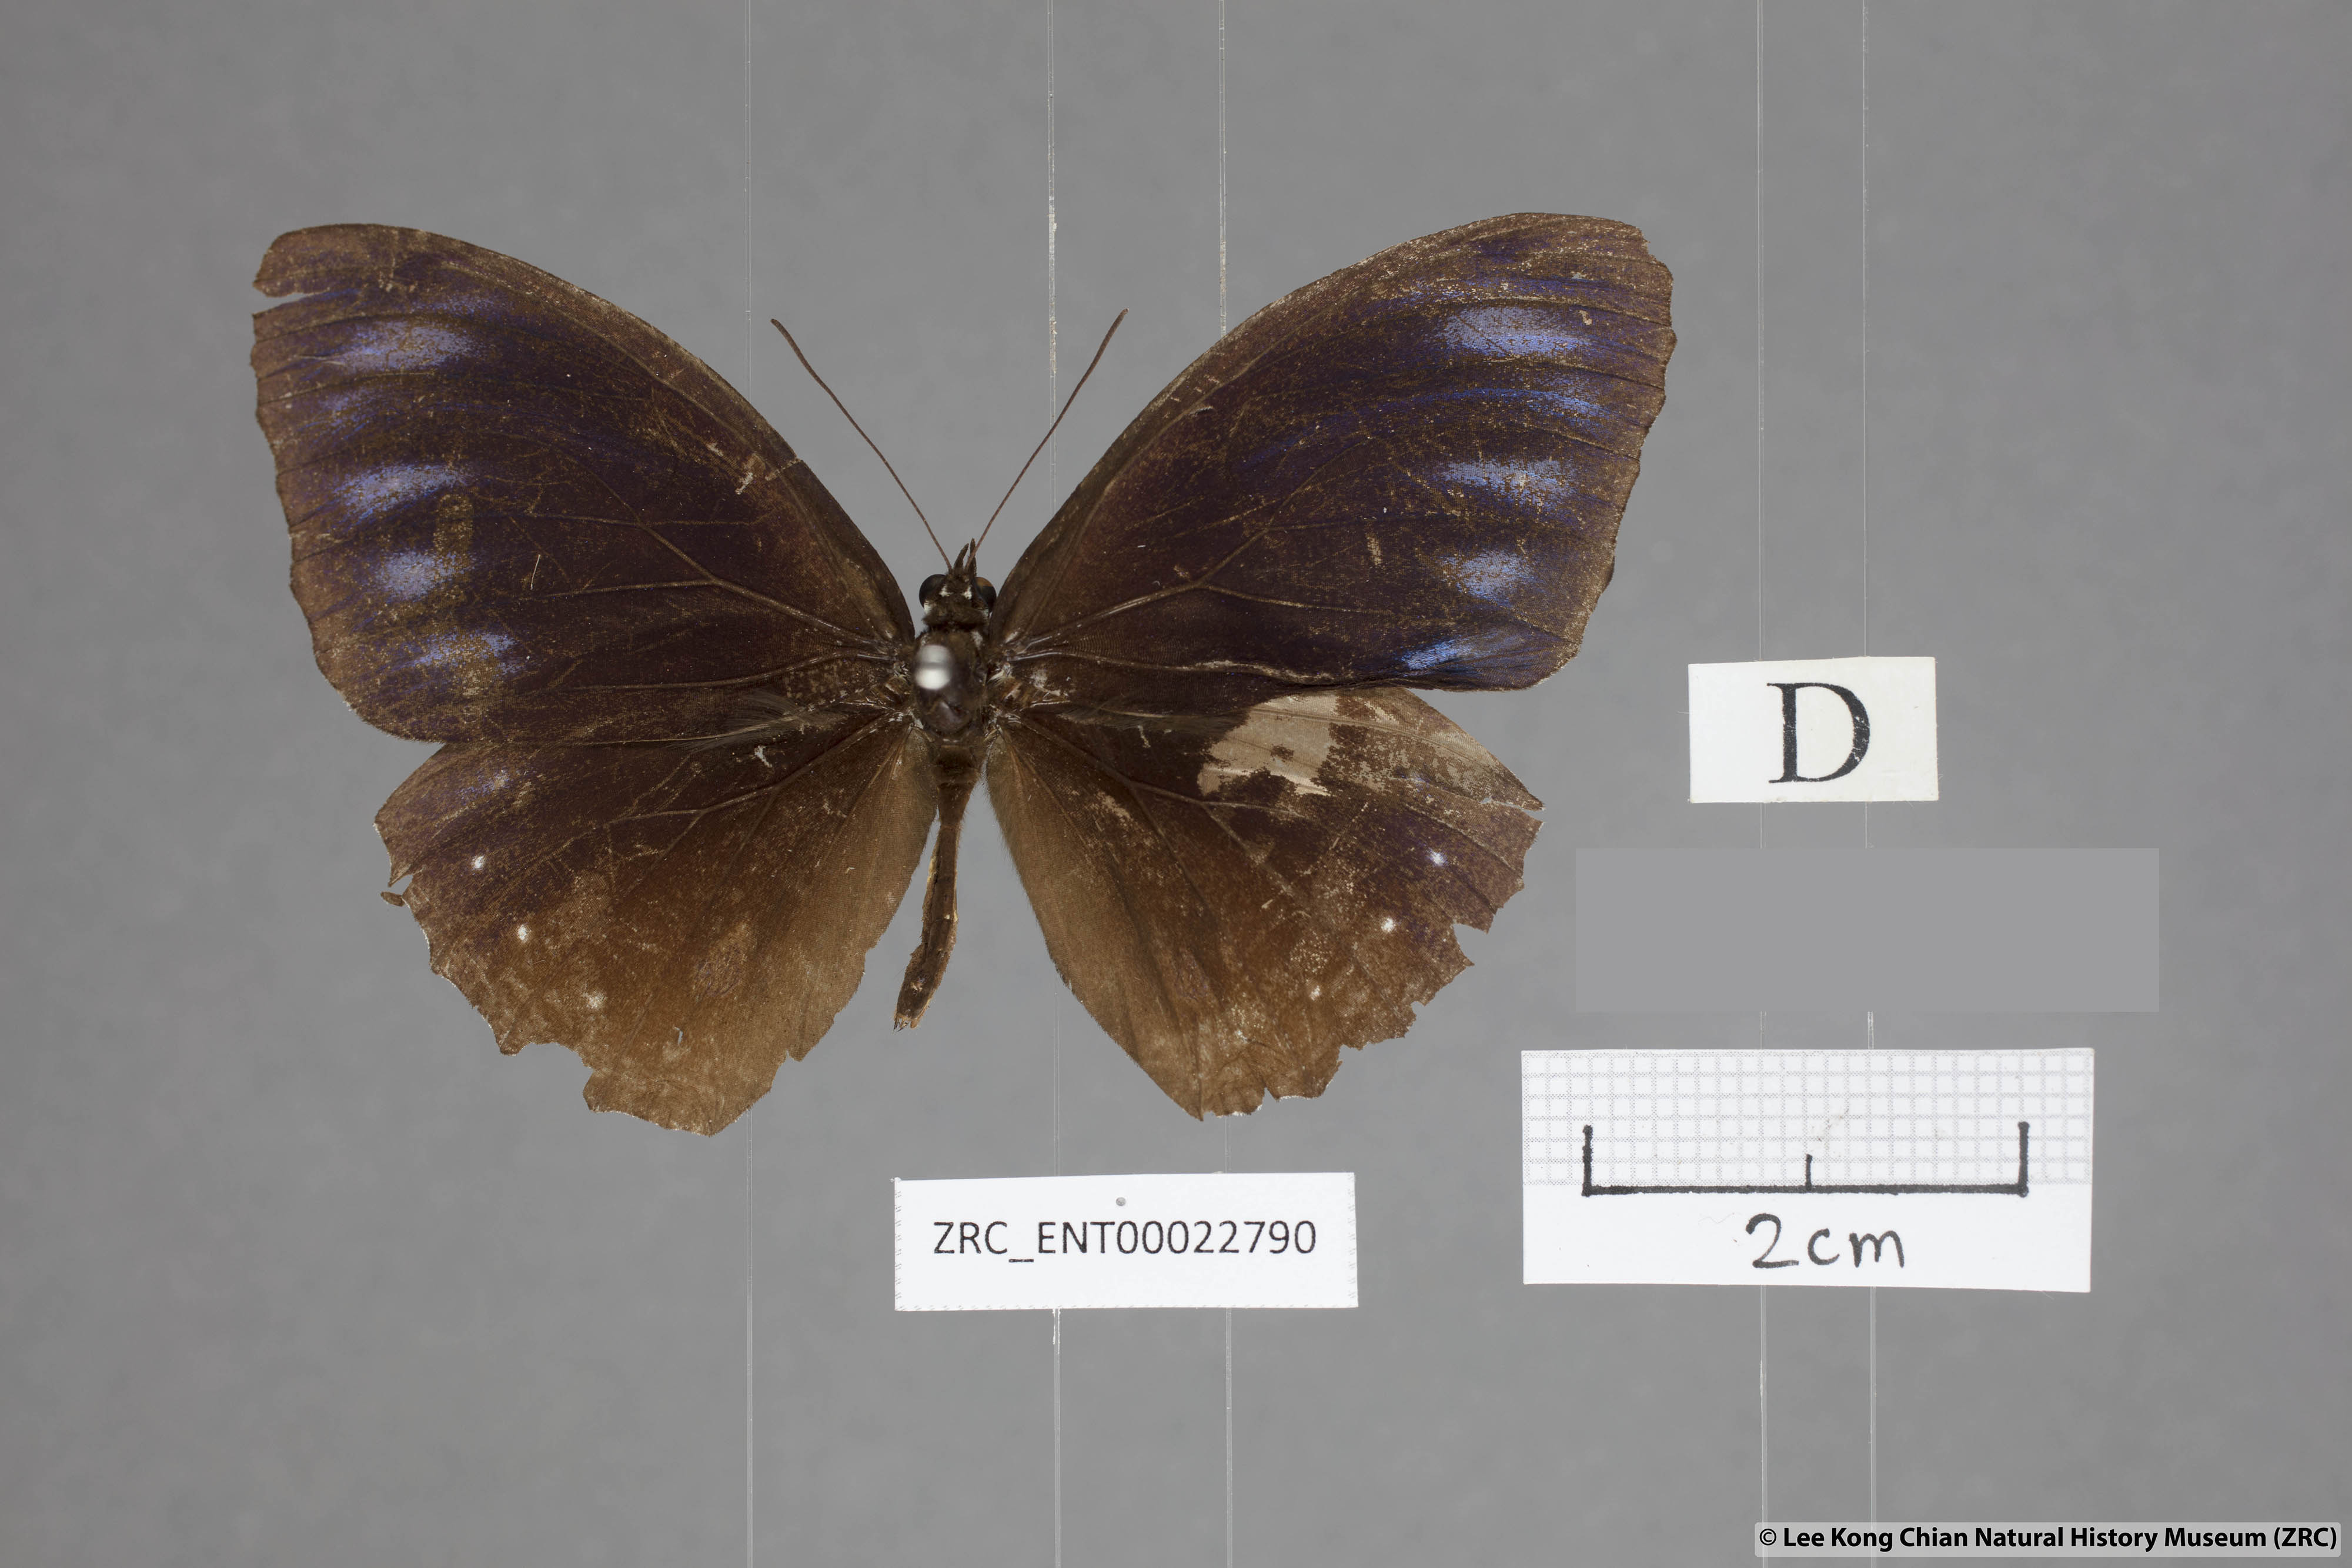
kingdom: Animalia
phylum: Arthropoda
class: Insecta
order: Lepidoptera
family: Nymphalidae
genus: Elymnias
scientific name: Elymnias patna
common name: Blue-striped palmfly
